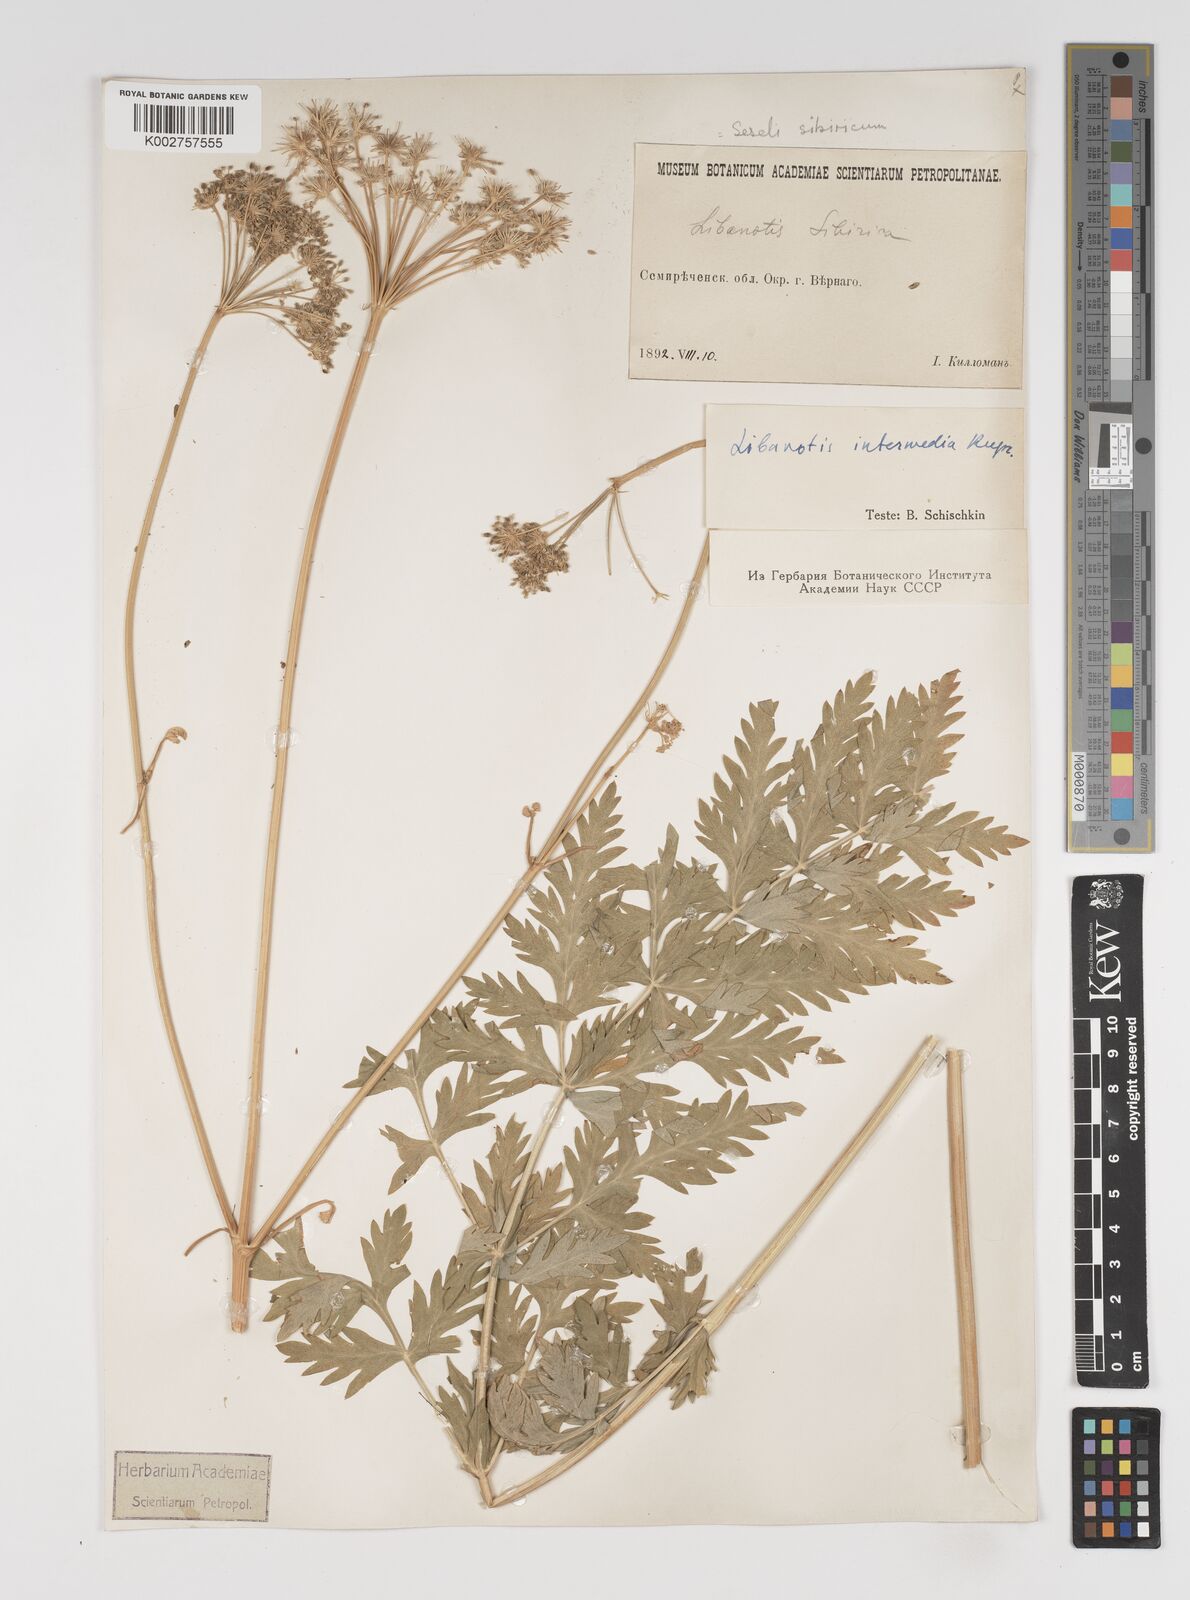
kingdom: Plantae
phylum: Tracheophyta
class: Magnoliopsida
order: Apiales
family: Apiaceae
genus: Seseli
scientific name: Seseli libanotis
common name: Mooncarrot
